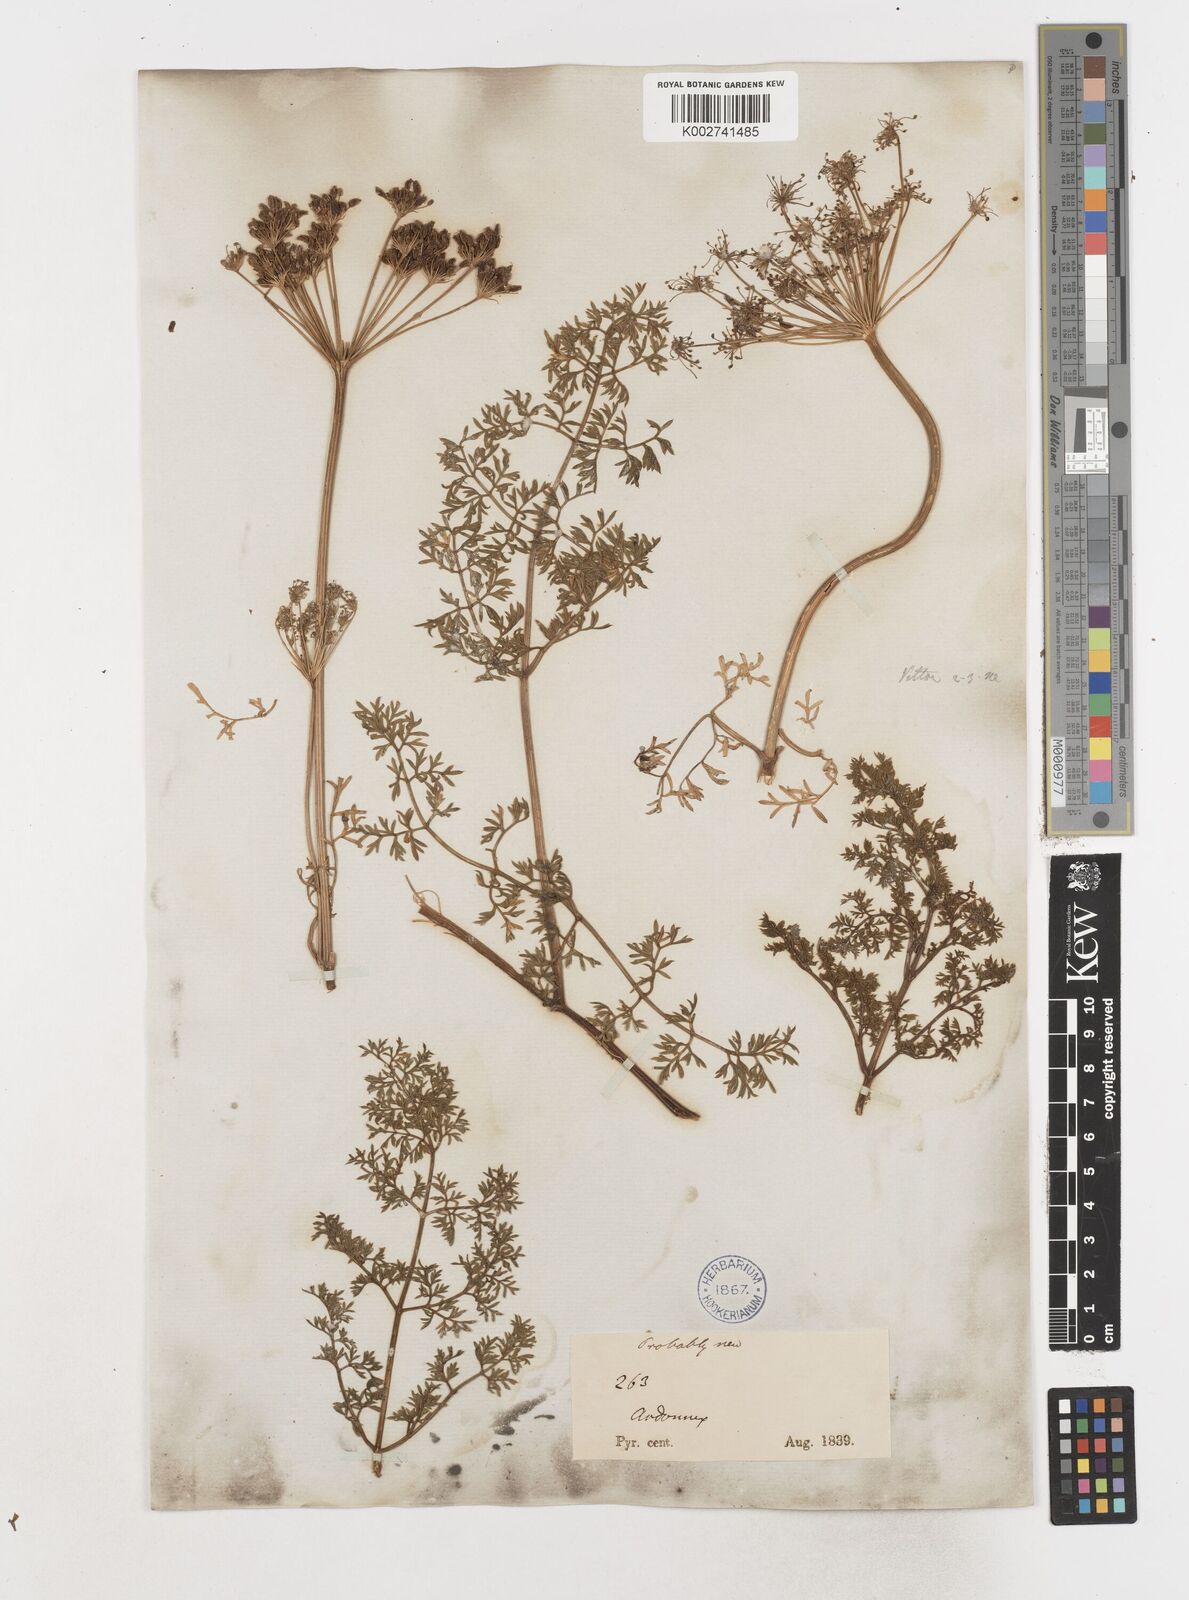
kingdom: Plantae
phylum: Tracheophyta
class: Magnoliopsida
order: Apiales
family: Apiaceae
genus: Coristospermum
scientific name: Coristospermum cuneifolium
